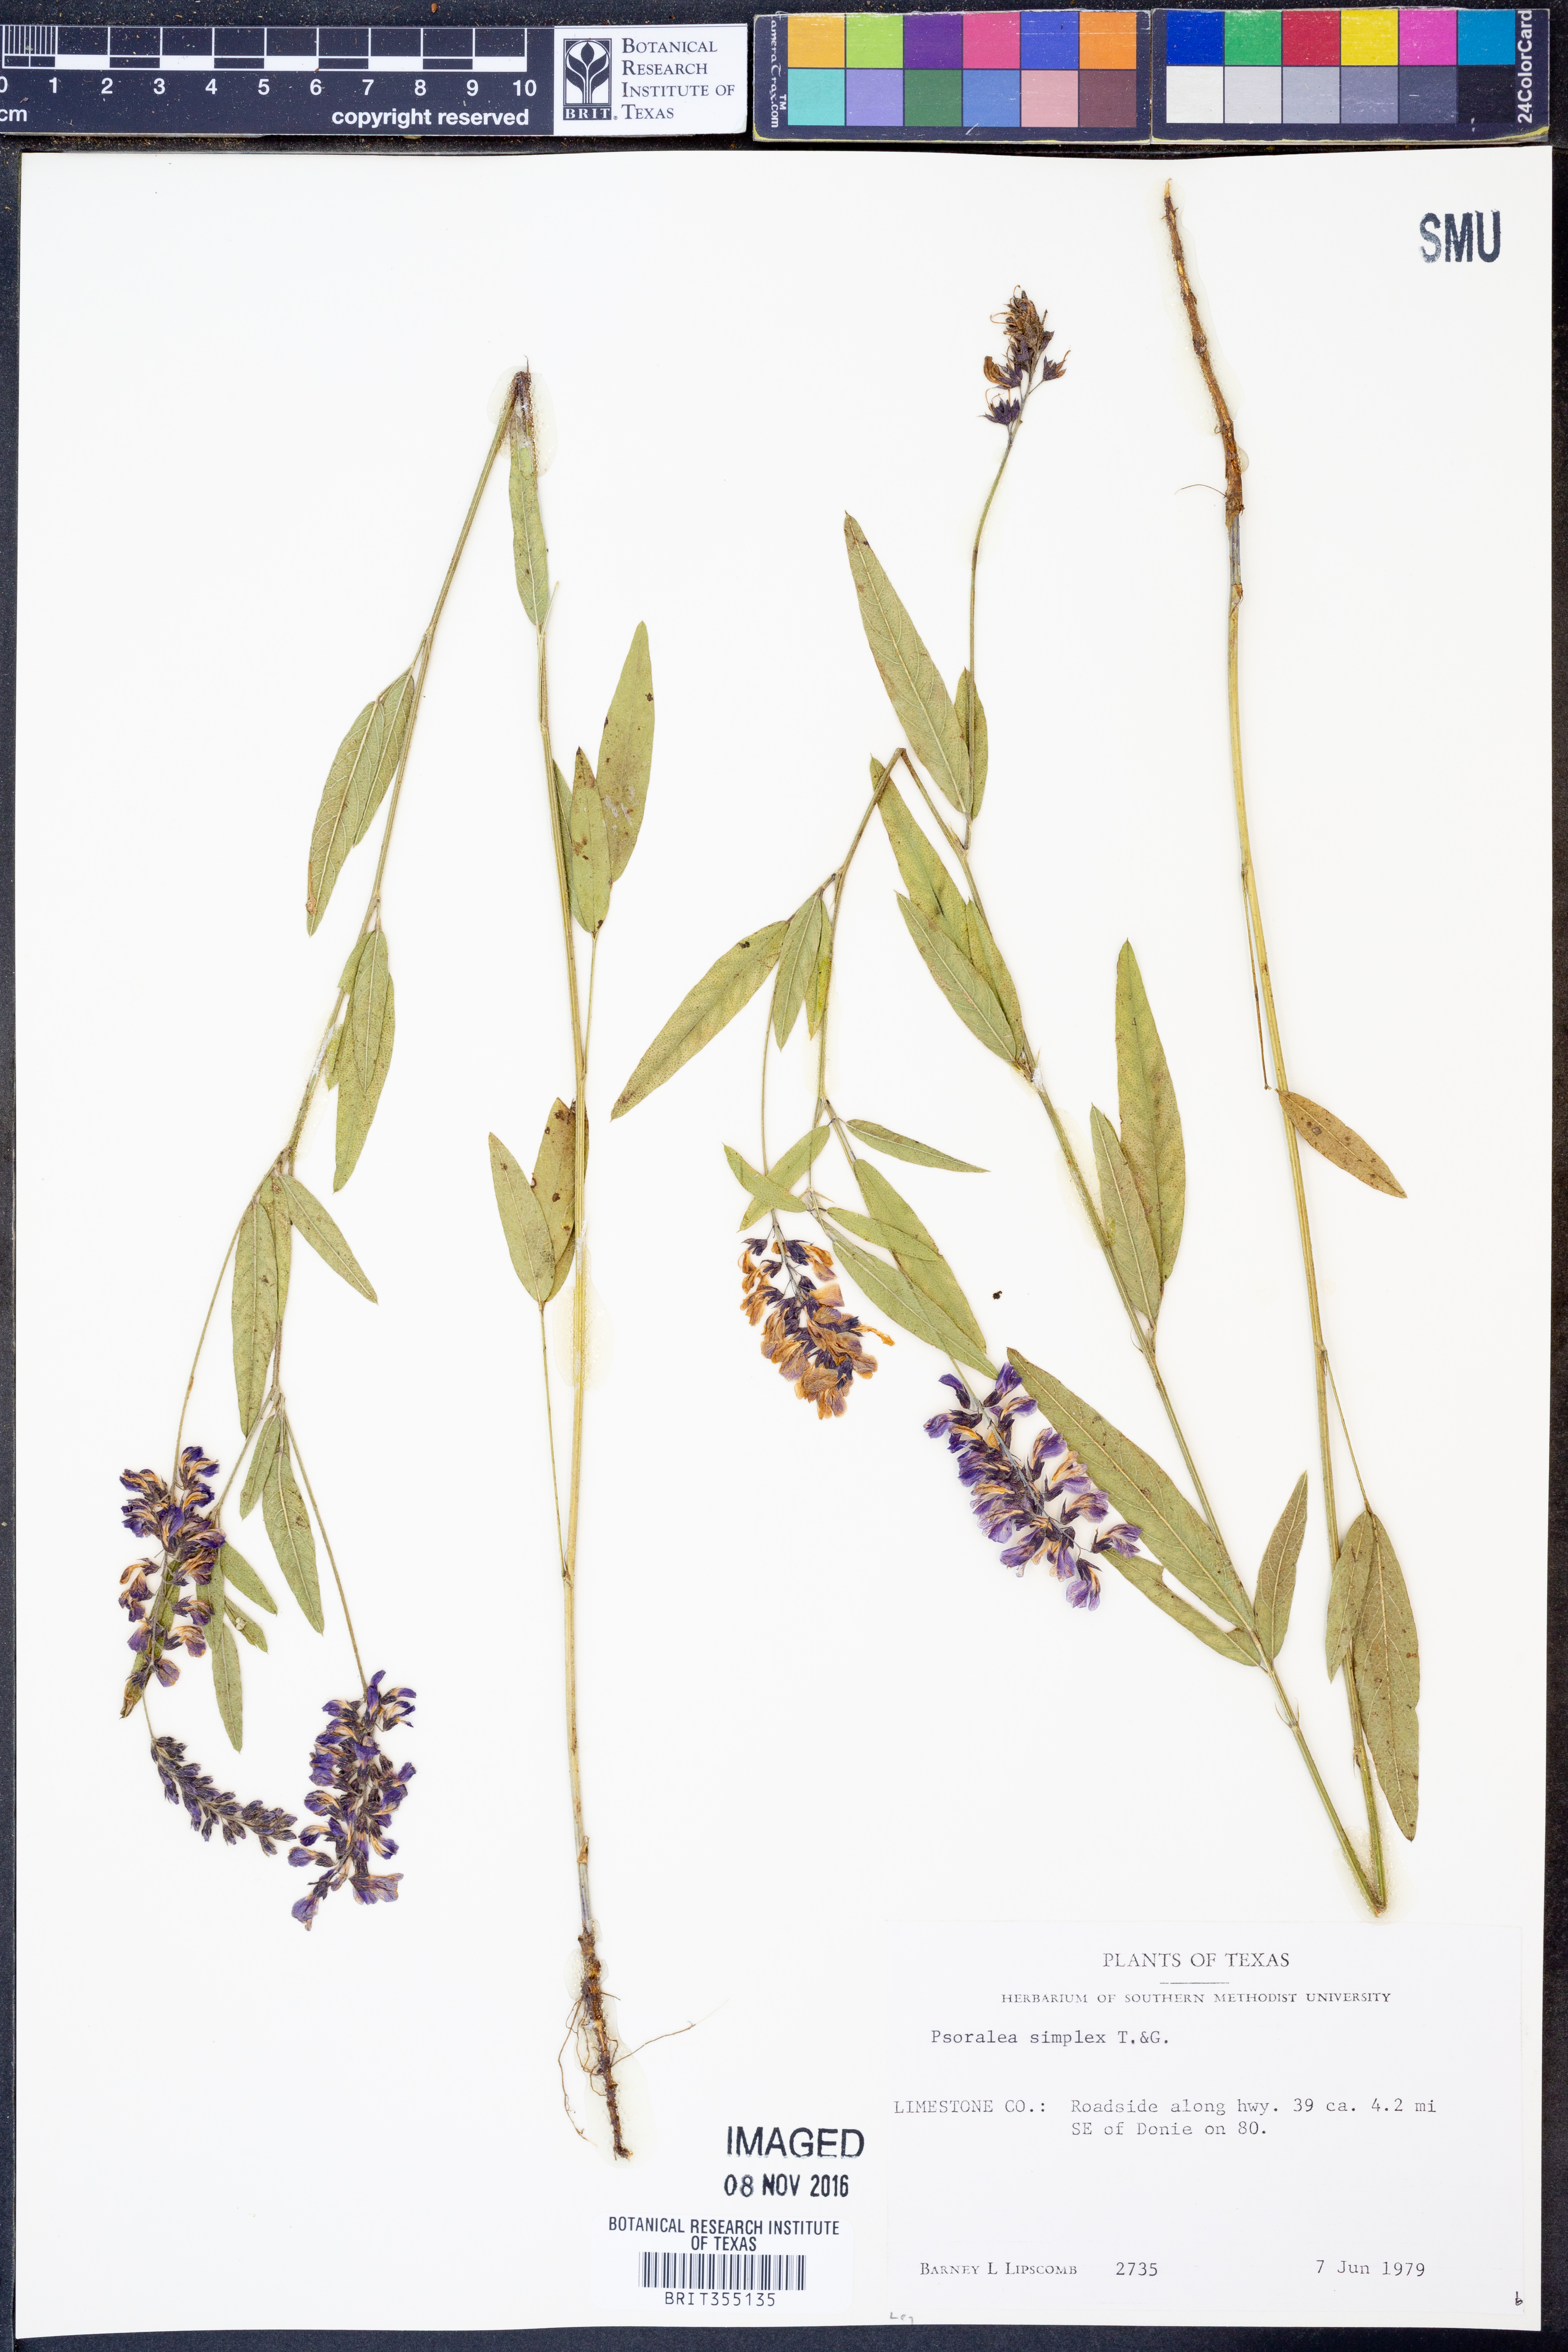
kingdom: Plantae
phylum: Tracheophyta
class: Magnoliopsida
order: Fabales
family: Fabaceae
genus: Orbexilum
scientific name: Orbexilum simplex
